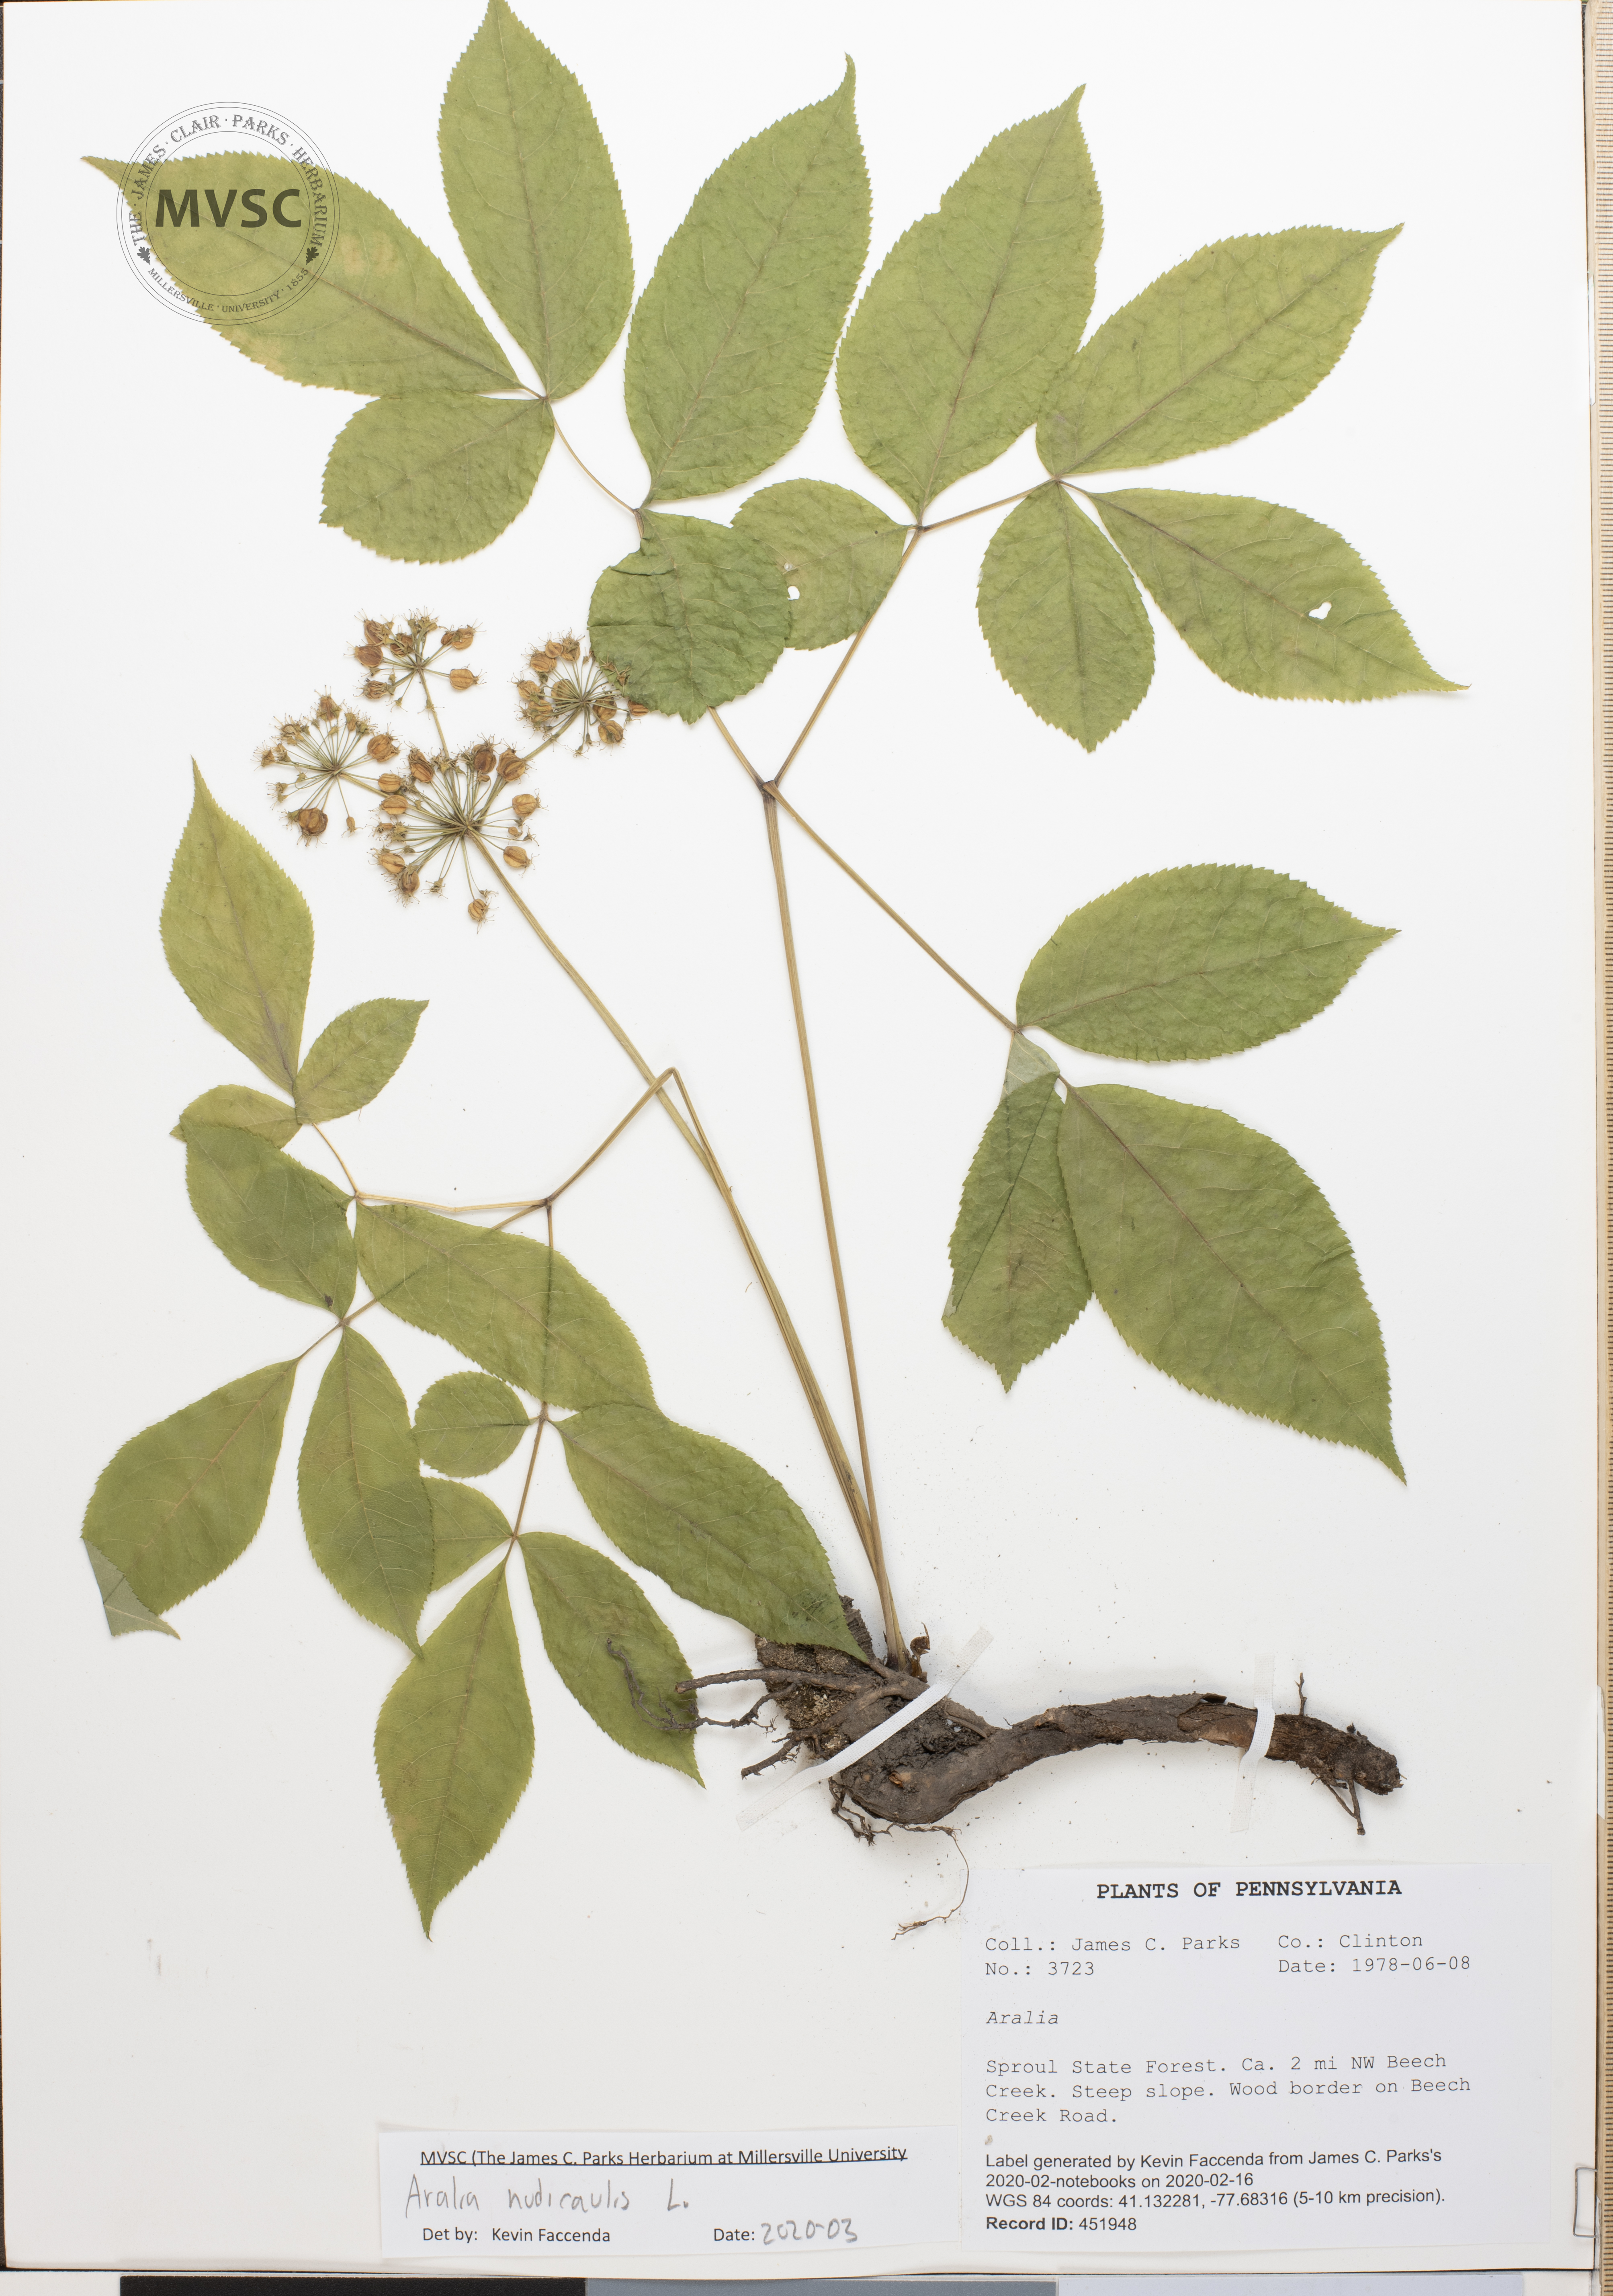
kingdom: Plantae
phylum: Tracheophyta
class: Magnoliopsida
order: Apiales
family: Araliaceae
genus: Aralia
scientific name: Aralia nudicaulis
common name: Wild sarsaparilla
